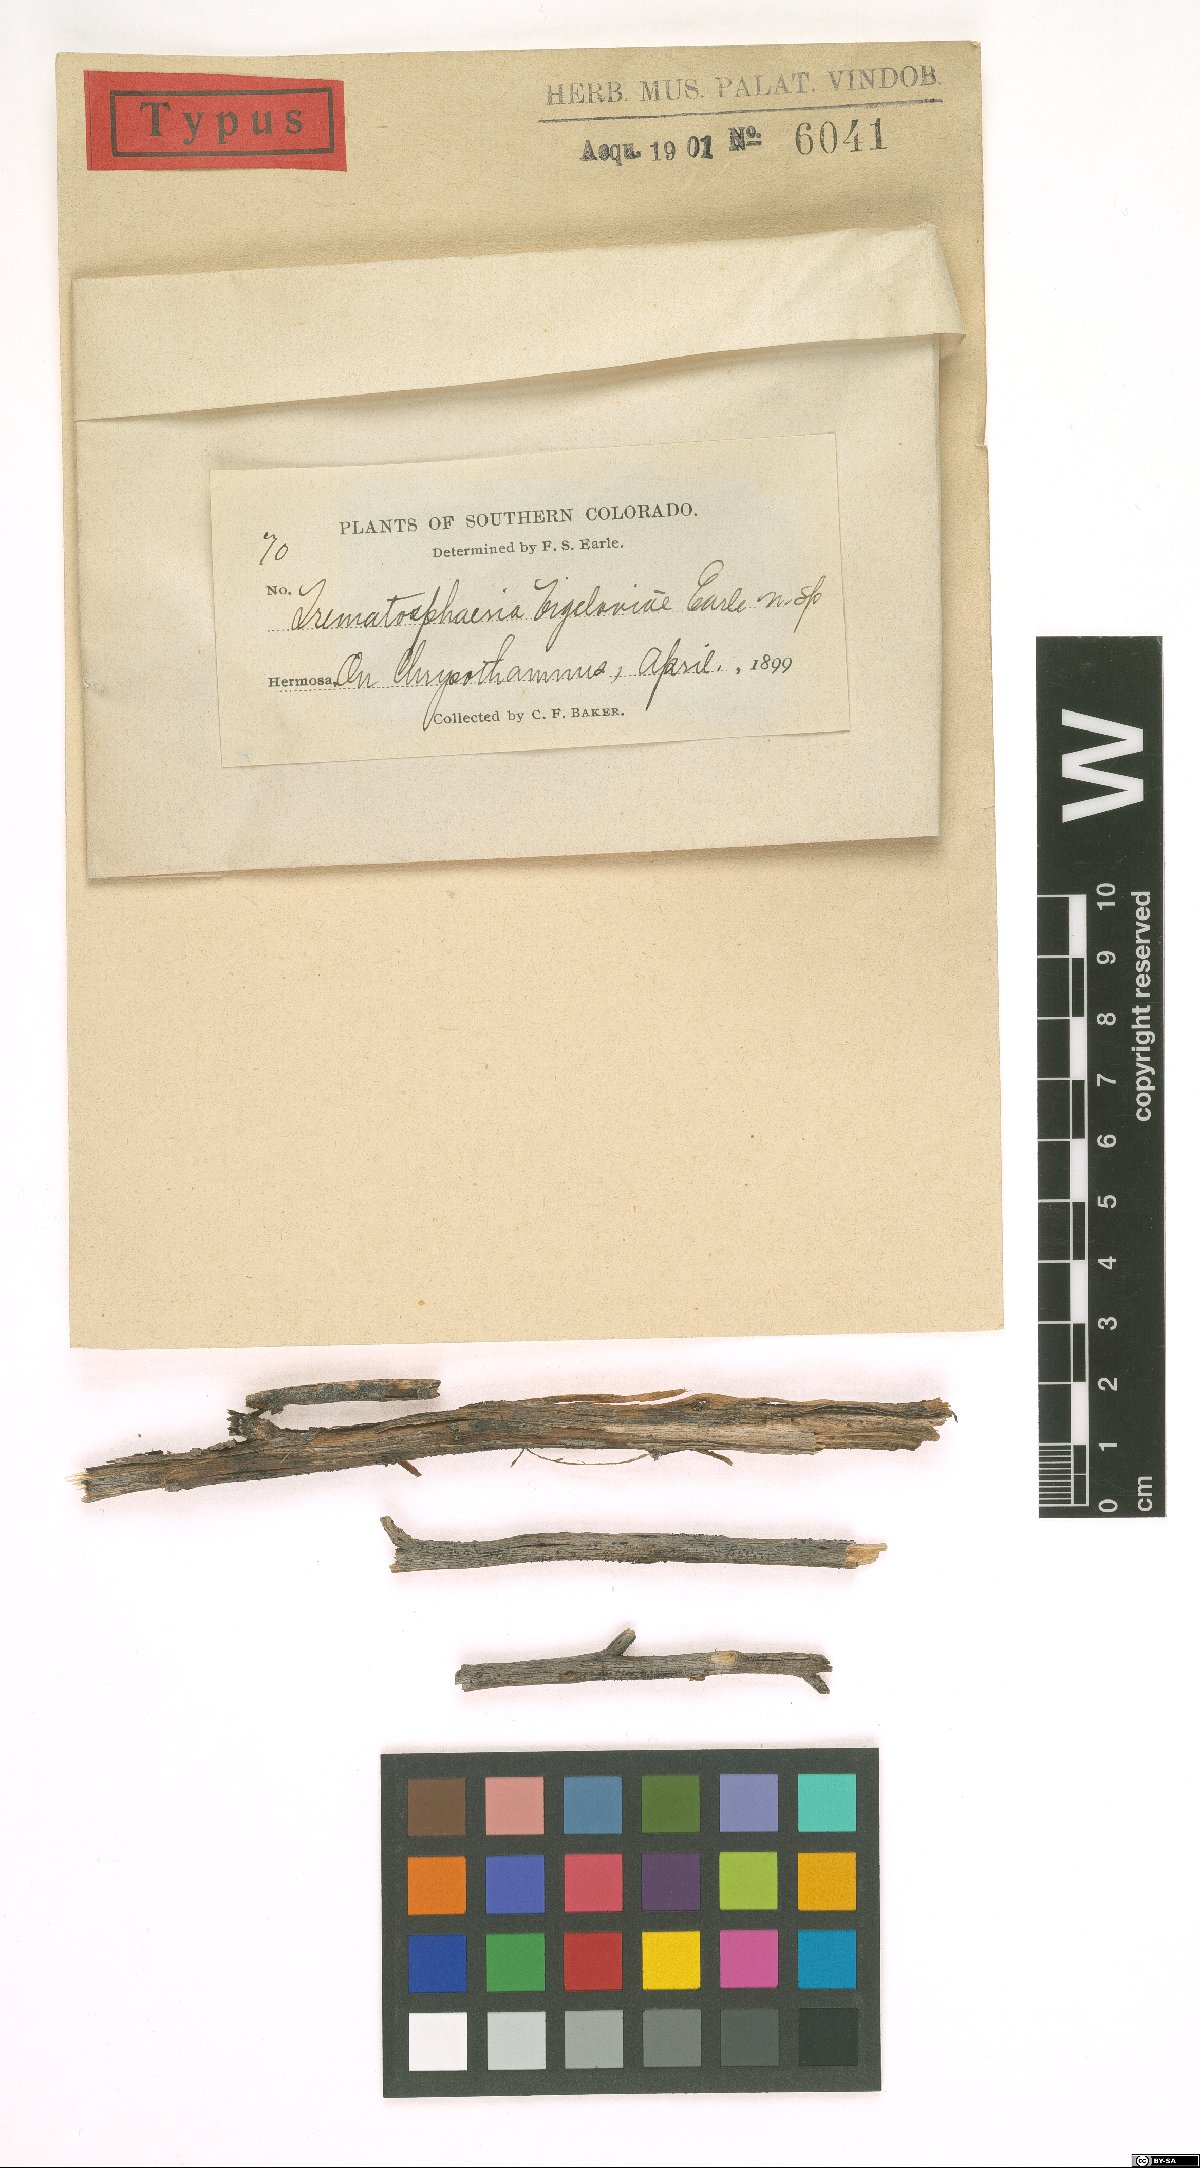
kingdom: Fungi
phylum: Ascomycota
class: Dothideomycetes
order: Pleosporales
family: Trematosphaeriaceae
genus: Trematosphaeria
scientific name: Trematosphaeria bigeloviae
